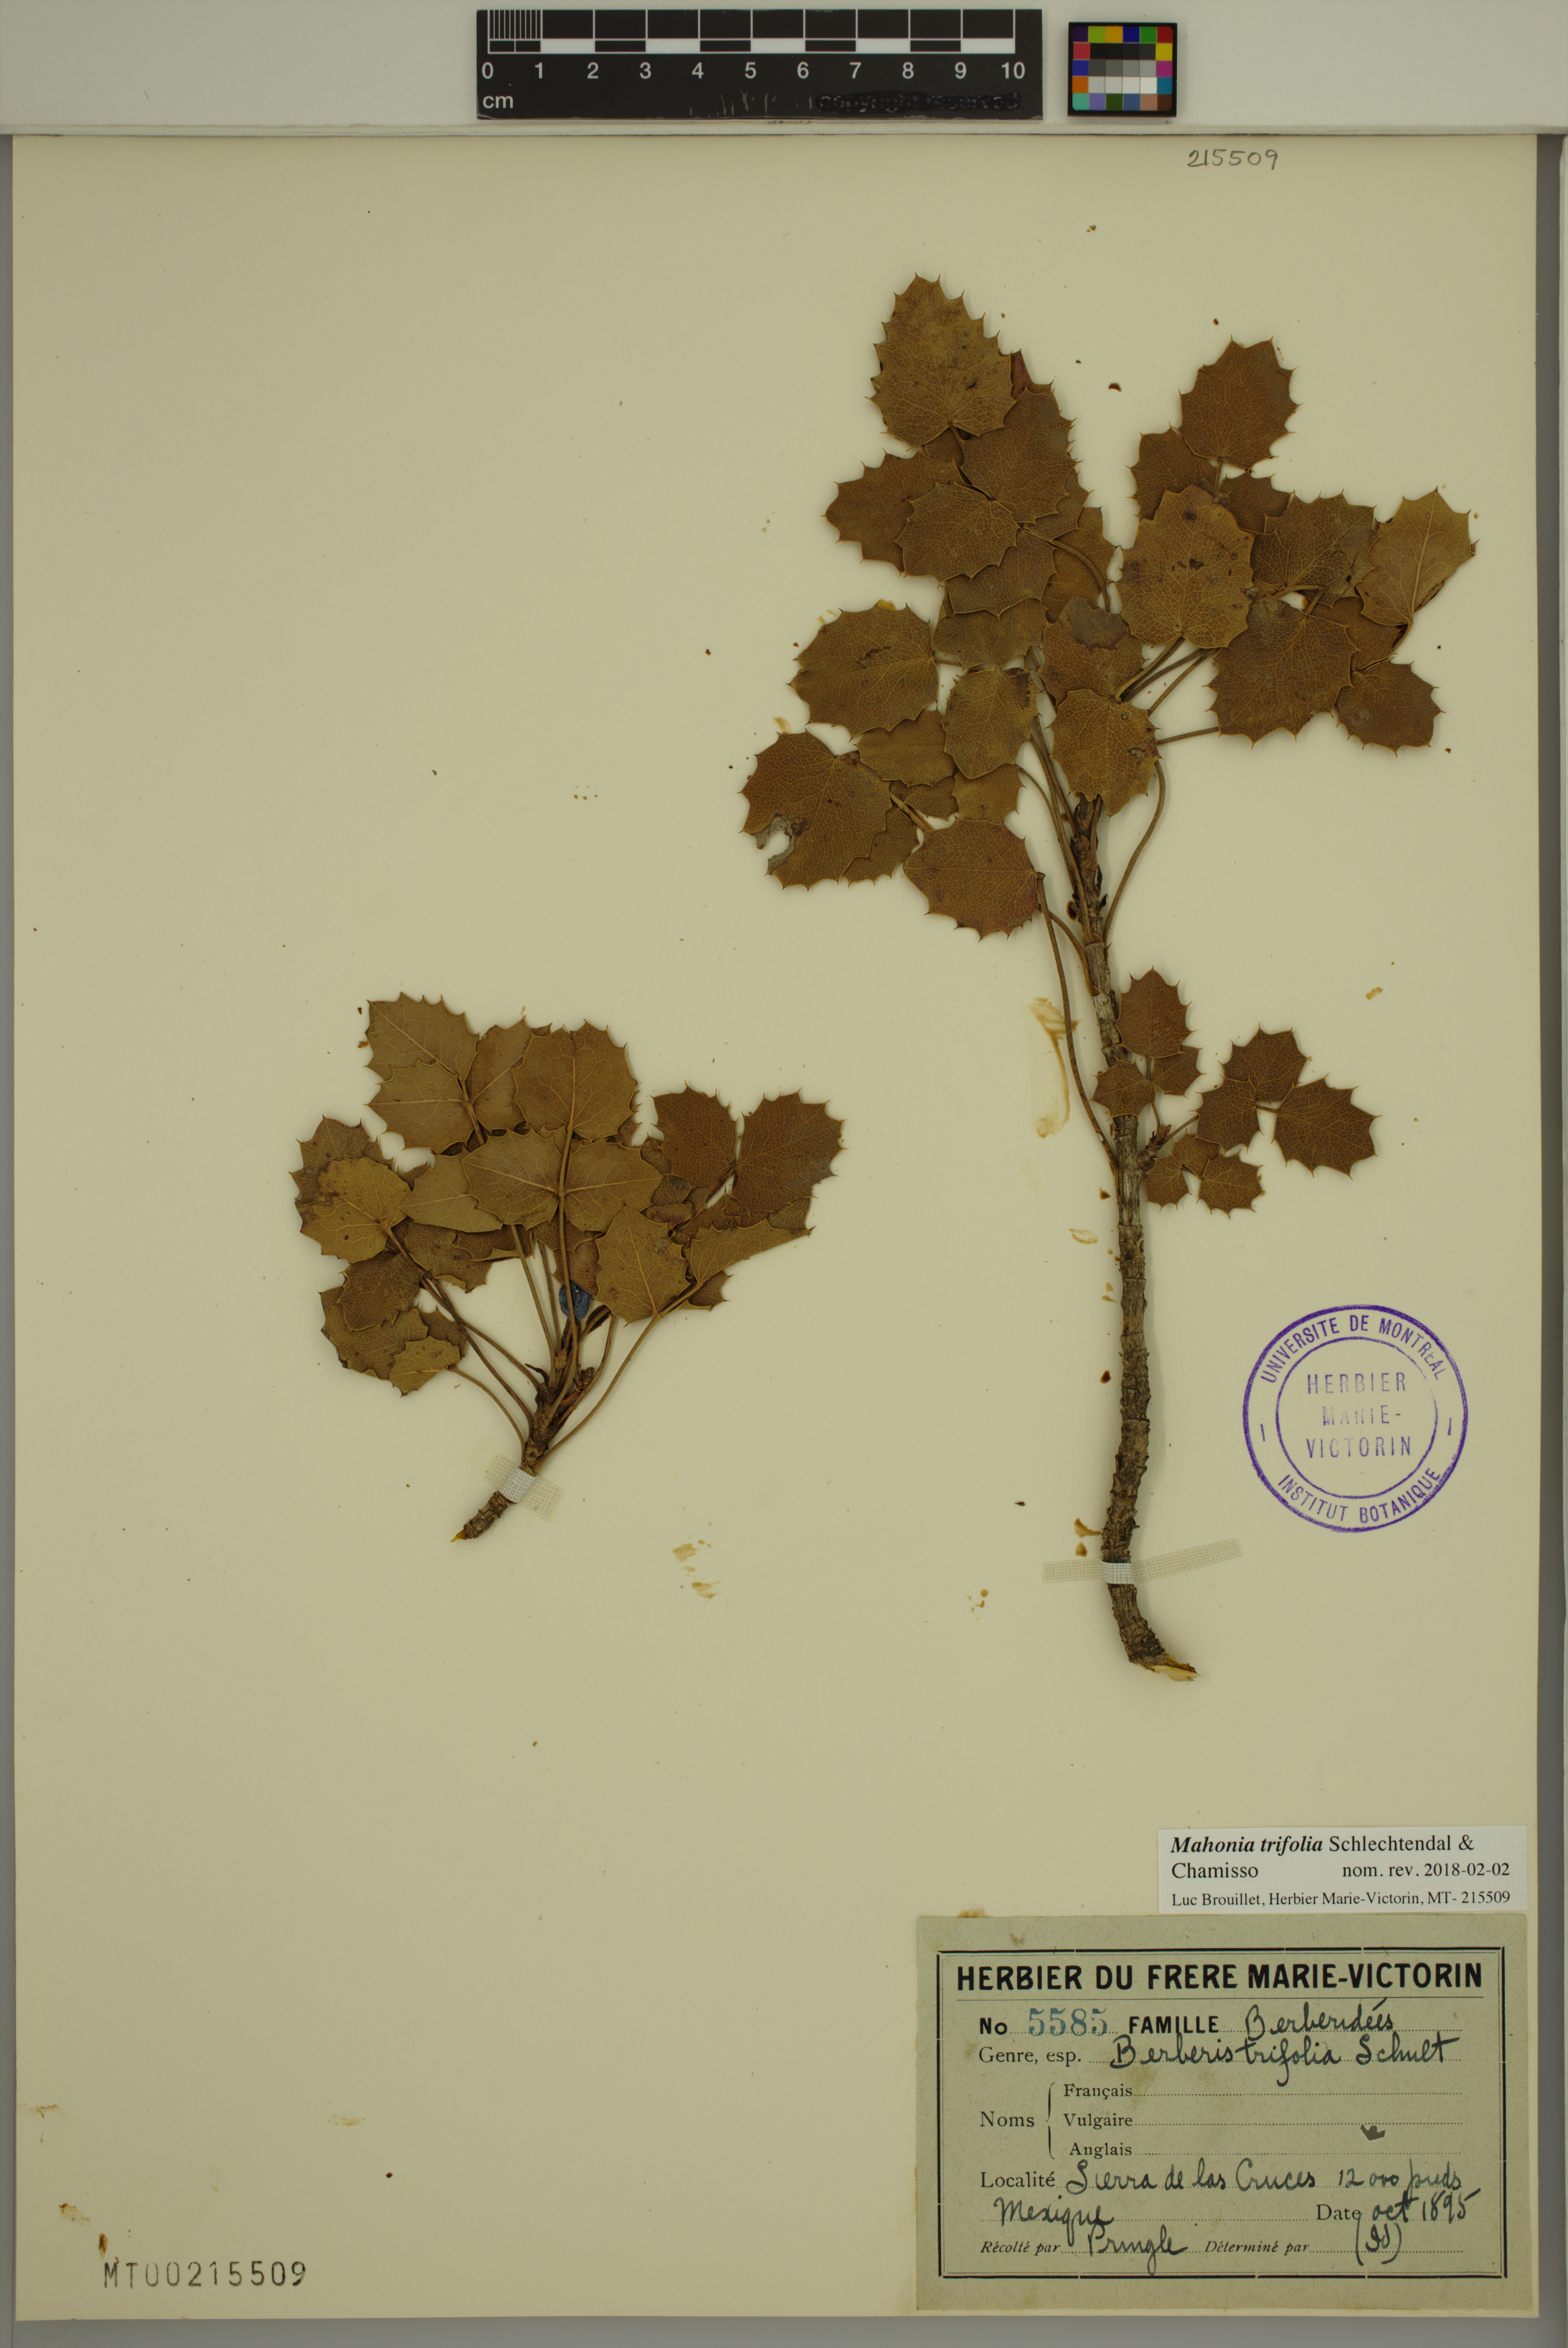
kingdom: Plantae
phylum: Tracheophyta
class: Magnoliopsida
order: Ranunculales
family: Berberidaceae
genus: Mahonia
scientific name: Mahonia trifolia
